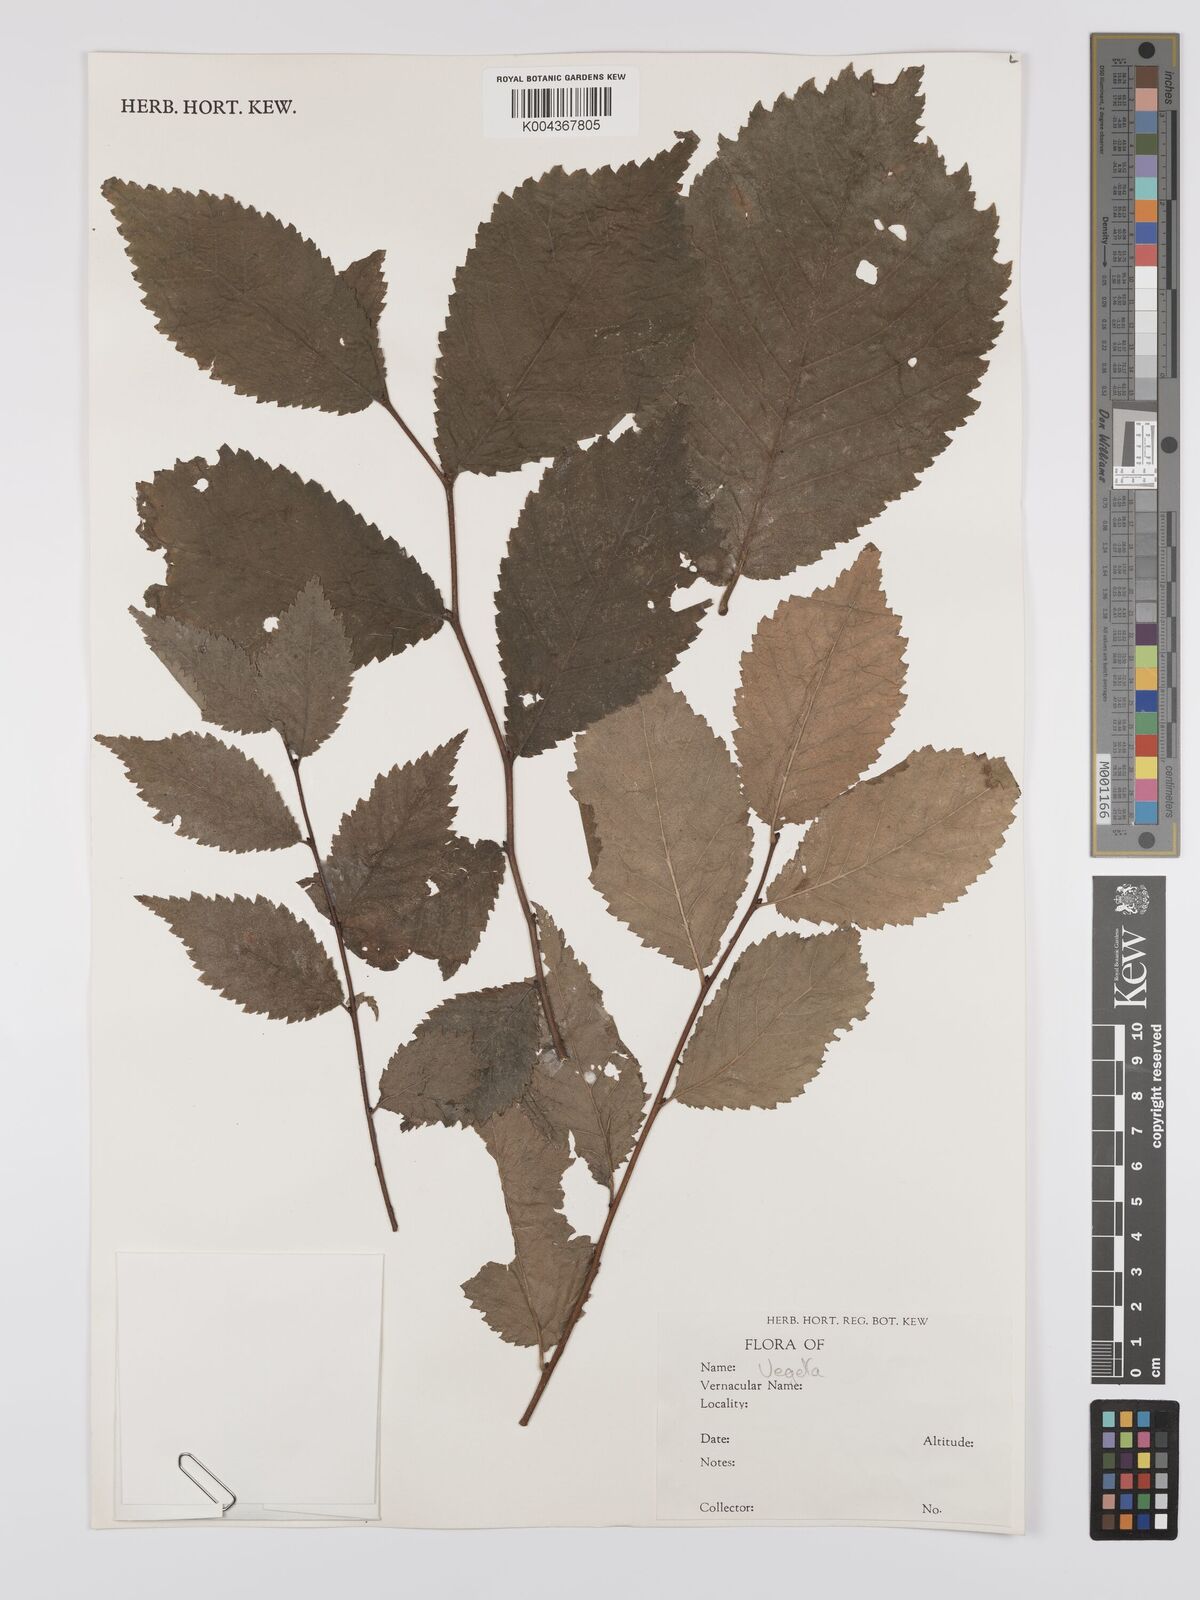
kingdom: Plantae
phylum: Tracheophyta
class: Magnoliopsida
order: Rosales
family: Ulmaceae
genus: Ulmus
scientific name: Ulmus hollandica
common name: Dutch elm
